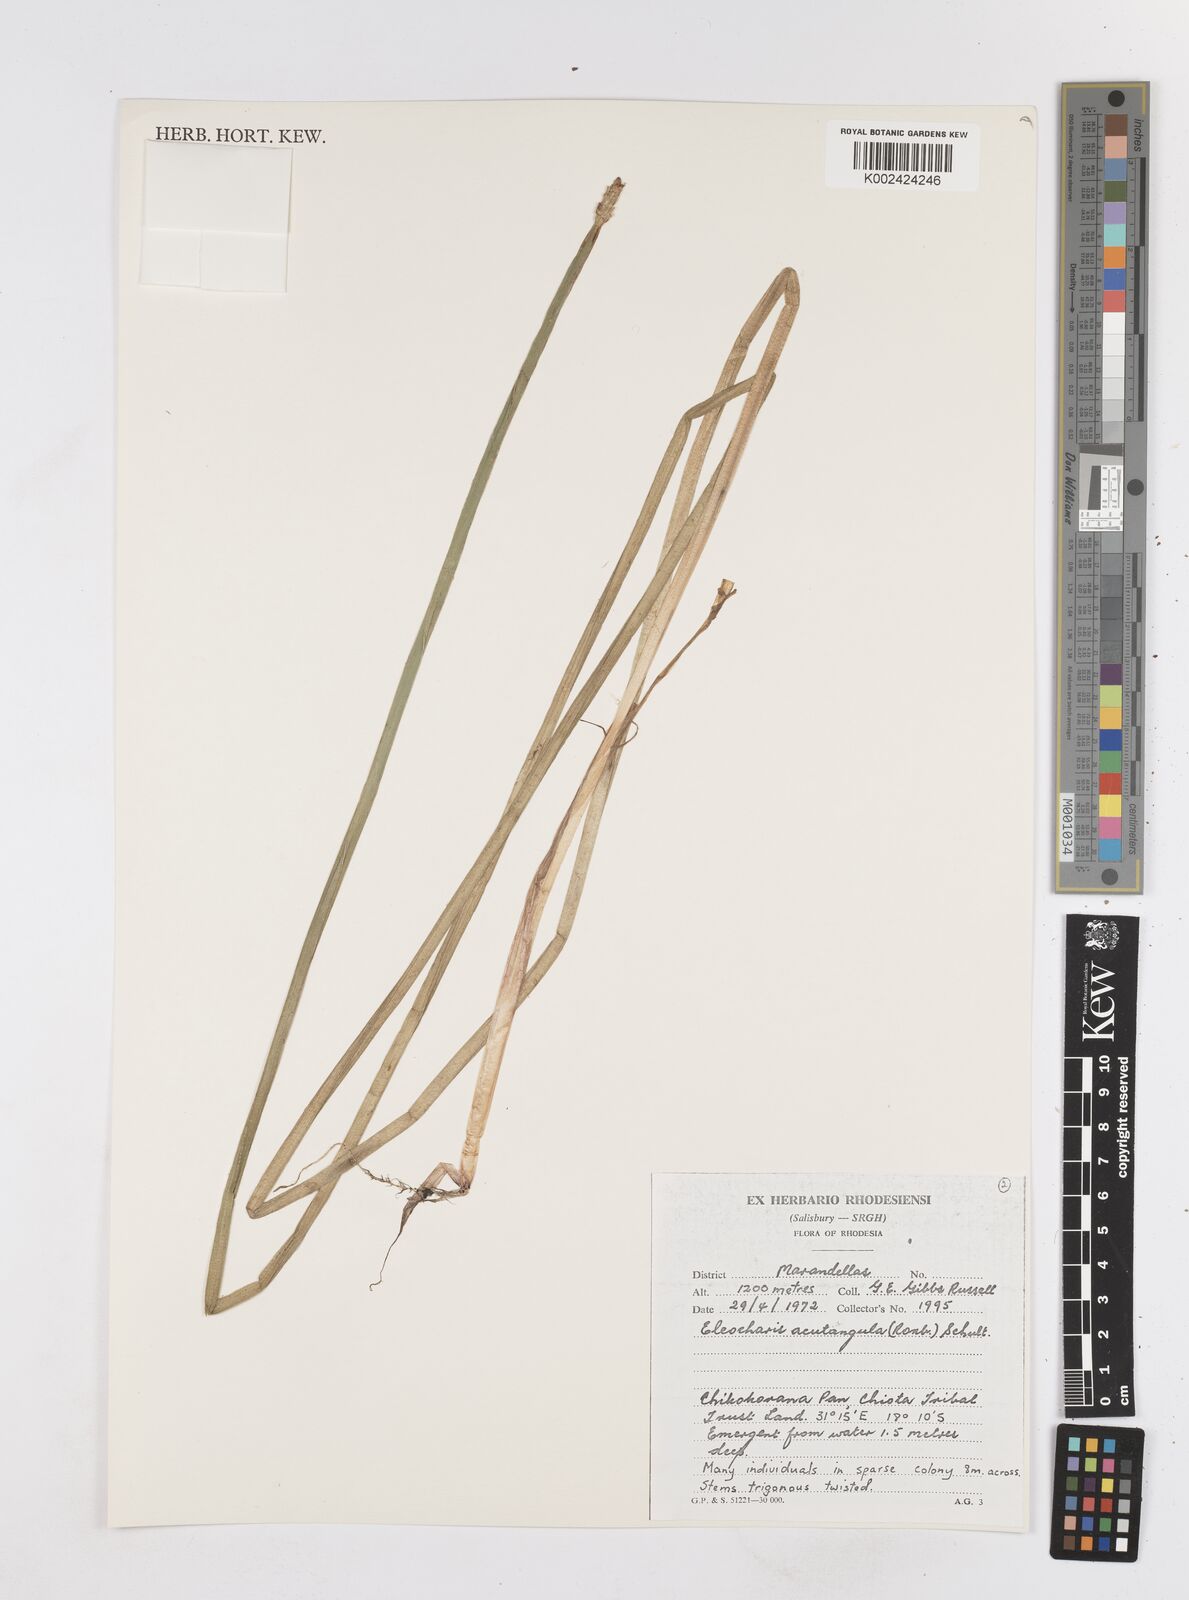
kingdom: Plantae
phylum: Tracheophyta
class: Liliopsida
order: Poales
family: Cyperaceae
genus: Eleocharis
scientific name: Eleocharis acutangula
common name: Acute spikerush
